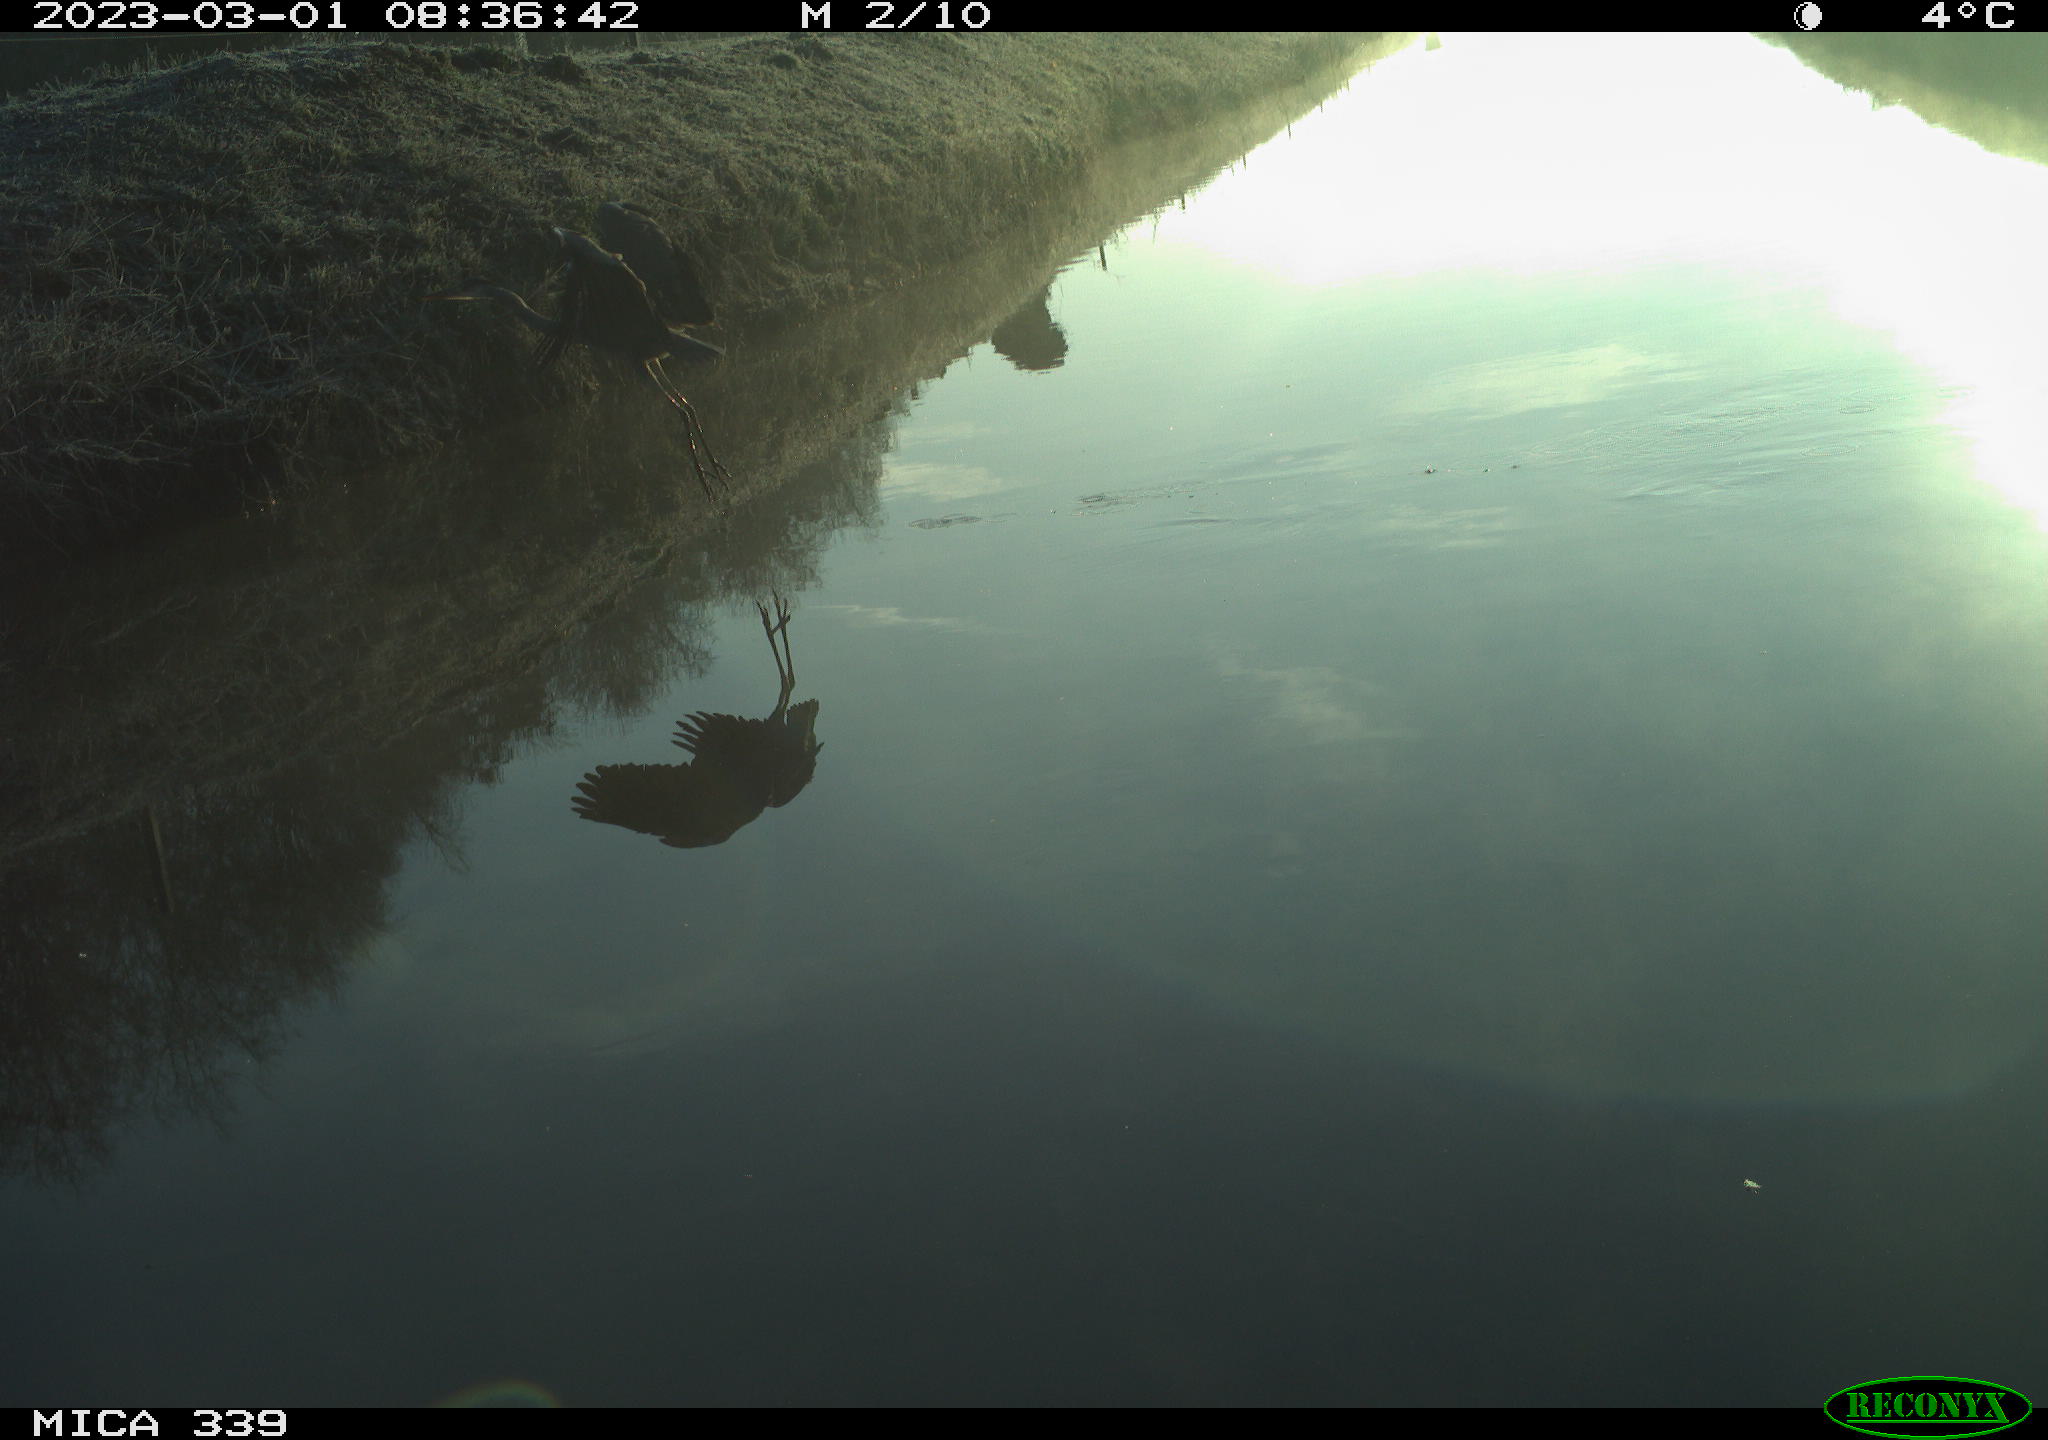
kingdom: Animalia
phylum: Chordata
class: Aves
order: Pelecaniformes
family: Ardeidae
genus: Ardea
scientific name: Ardea cinerea
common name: Grey heron
